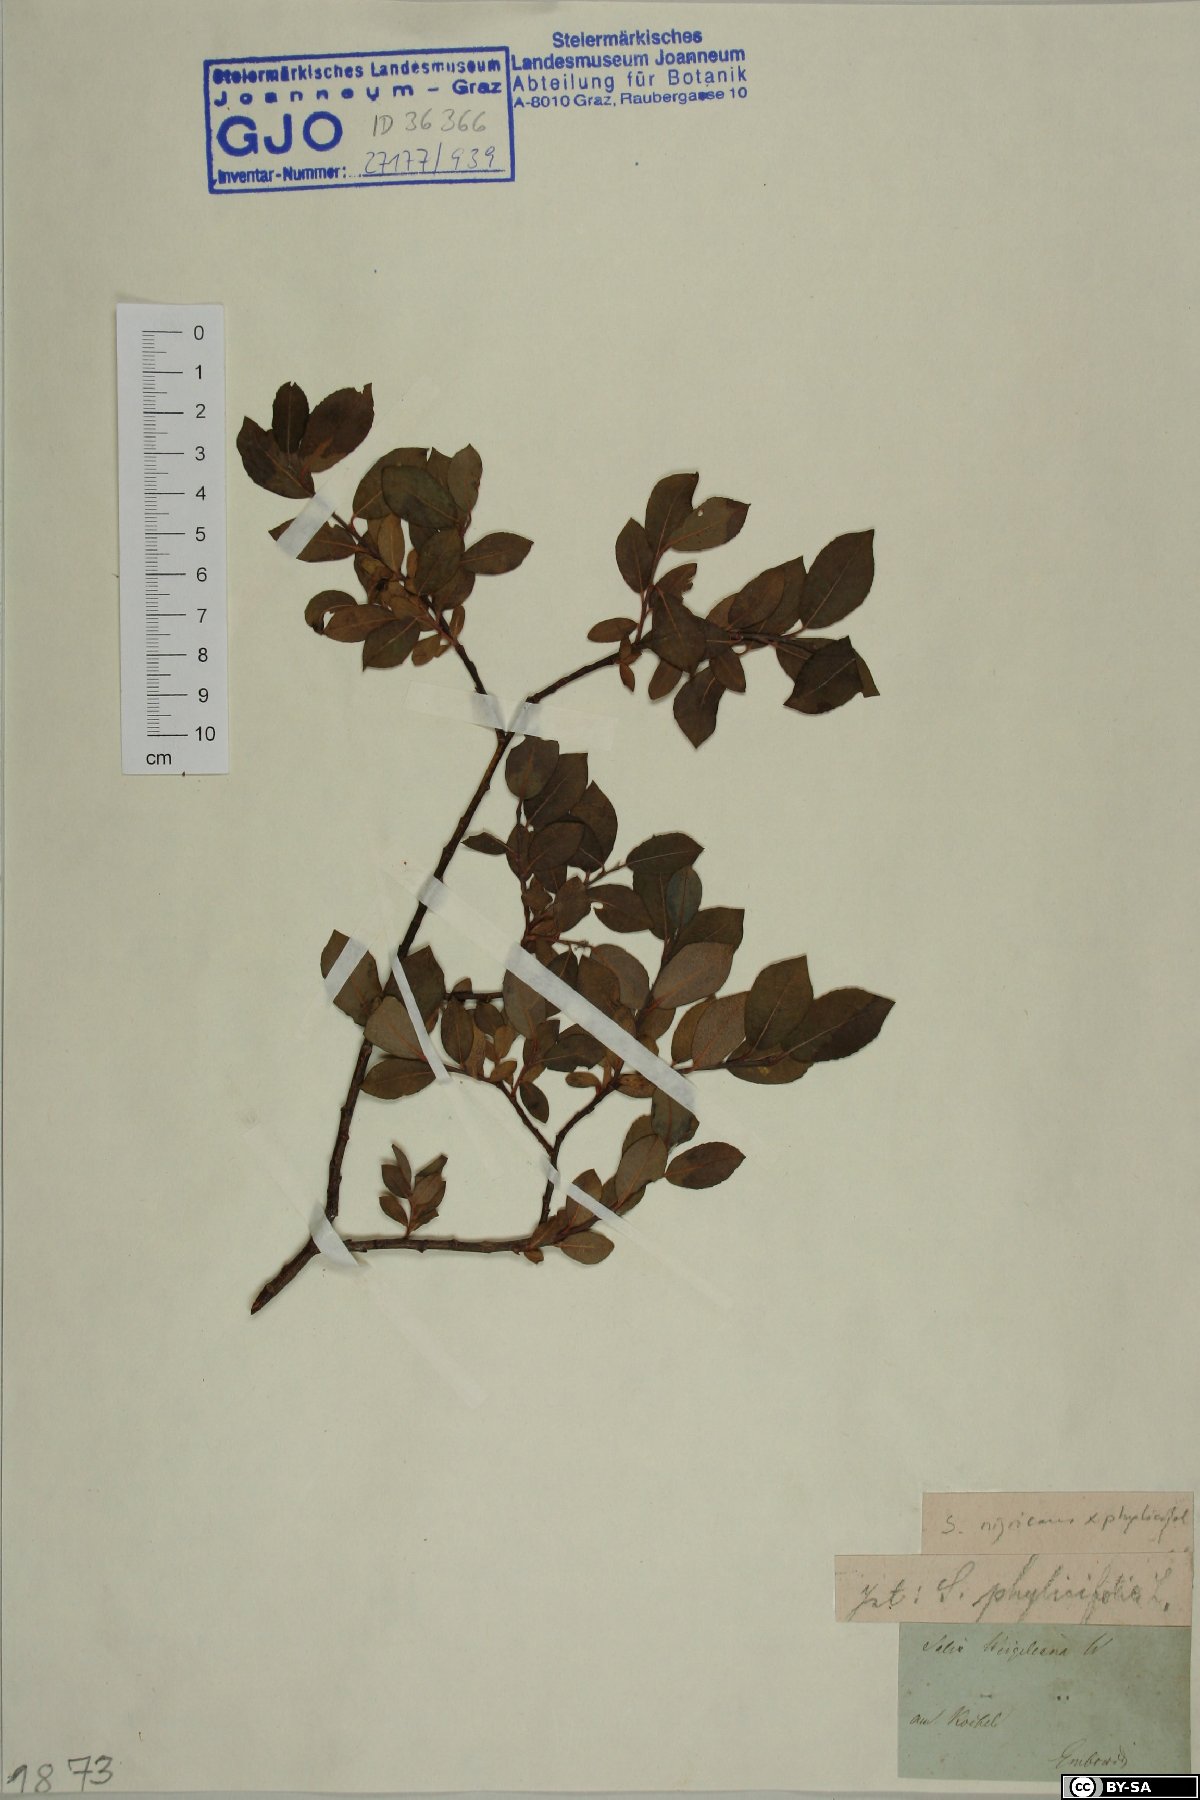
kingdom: Plantae
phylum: Tracheophyta
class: Magnoliopsida
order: Malpighiales
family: Salicaceae
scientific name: Salicaceae
